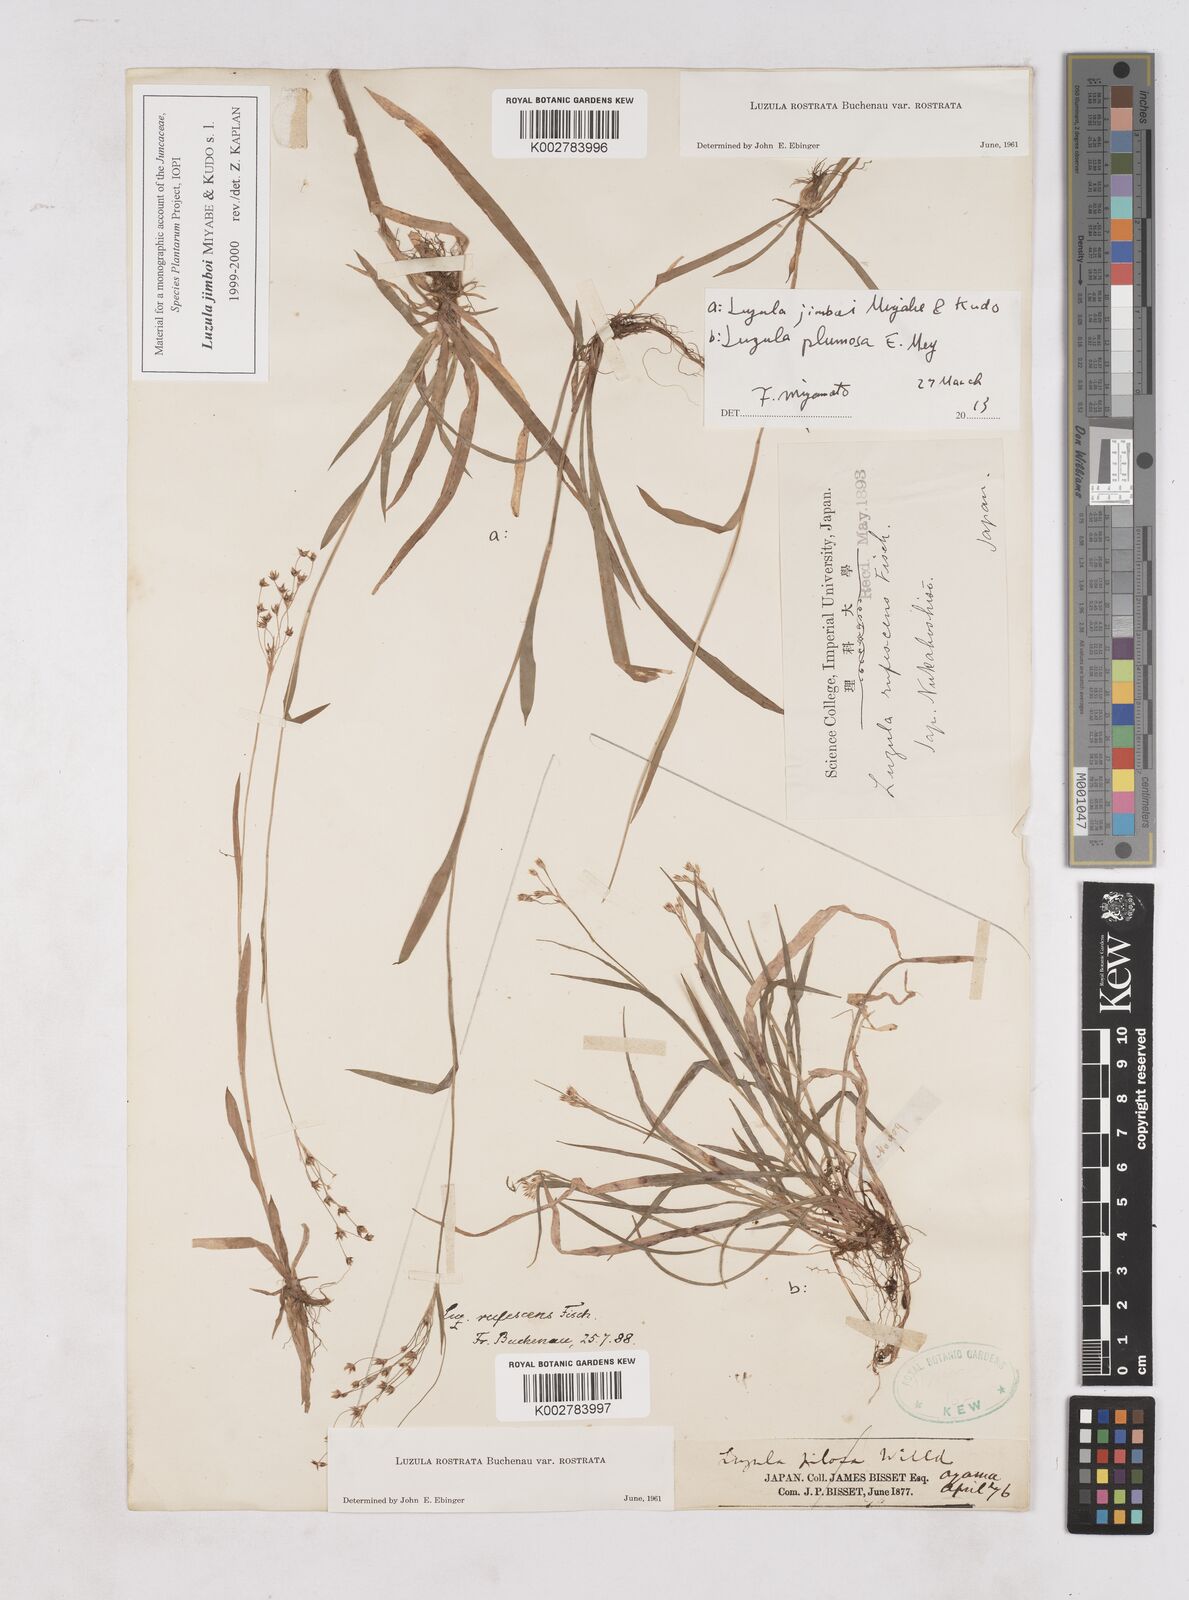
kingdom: Plantae
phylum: Tracheophyta
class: Liliopsida
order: Poales
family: Juncaceae
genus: Luzula
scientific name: Luzula jimboi
